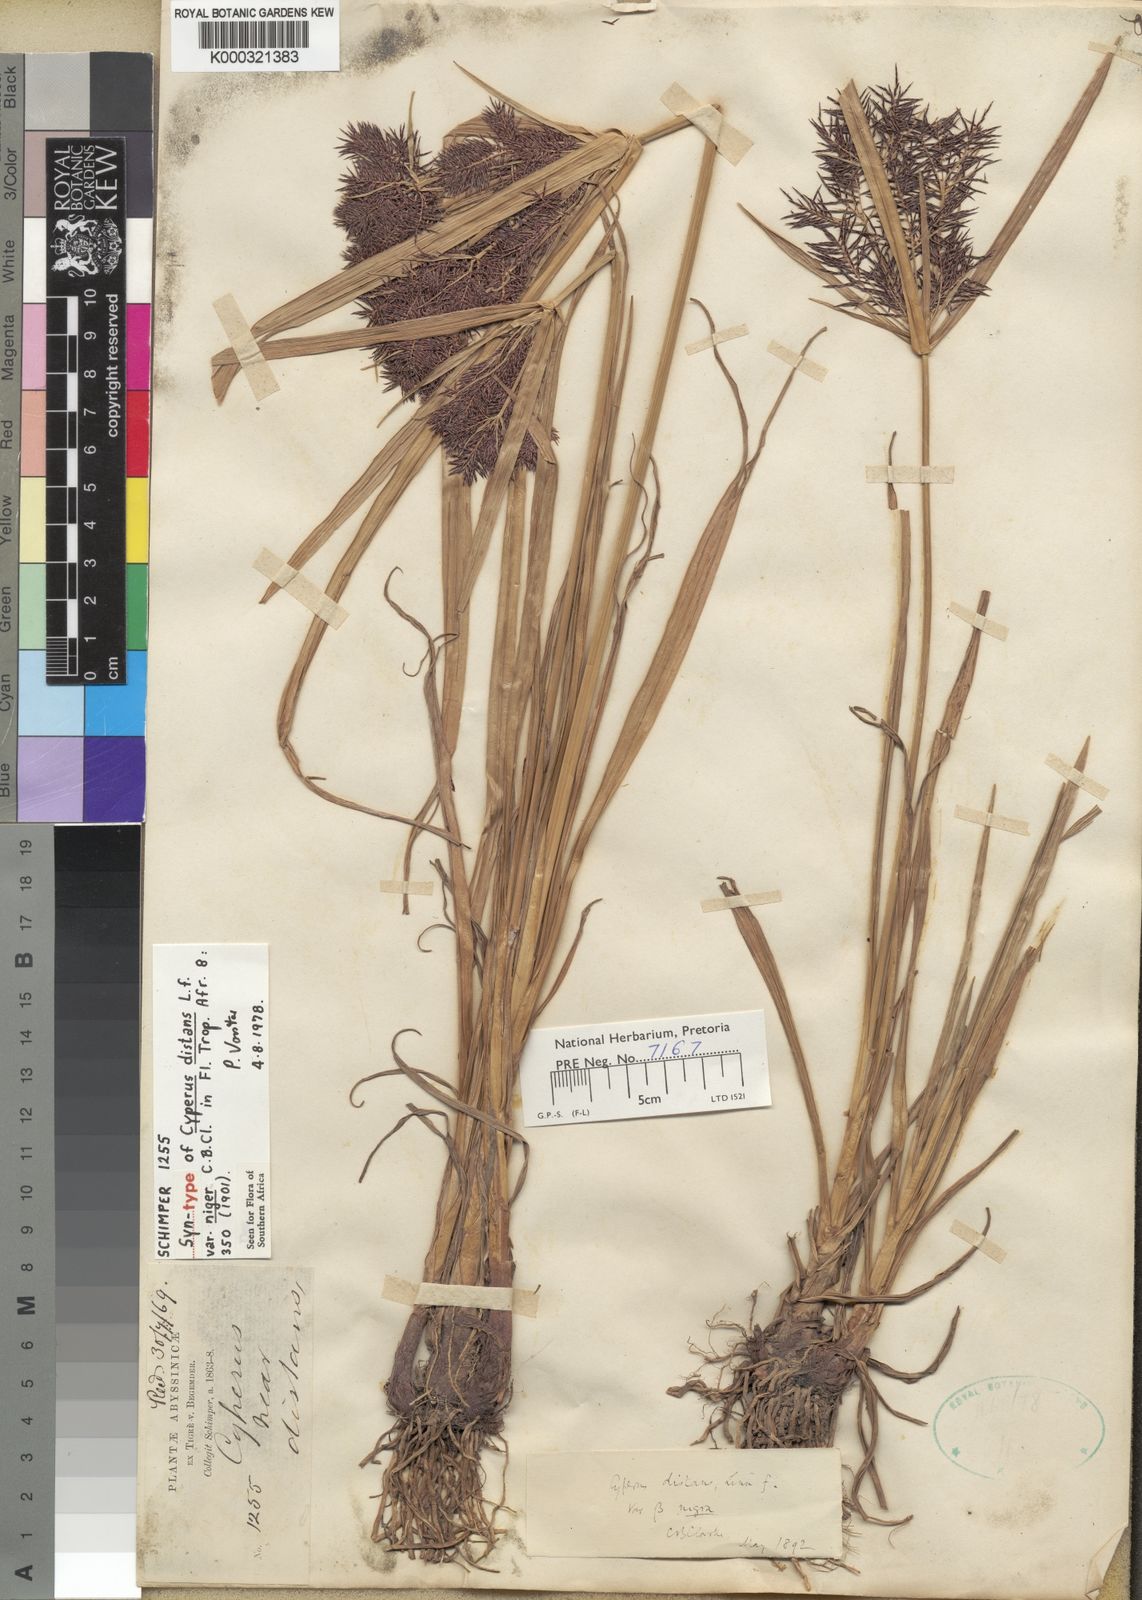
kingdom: Plantae
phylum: Tracheophyta
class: Liliopsida
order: Poales
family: Cyperaceae
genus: Cyperus
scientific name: Cyperus distans
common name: Slender cyperus
